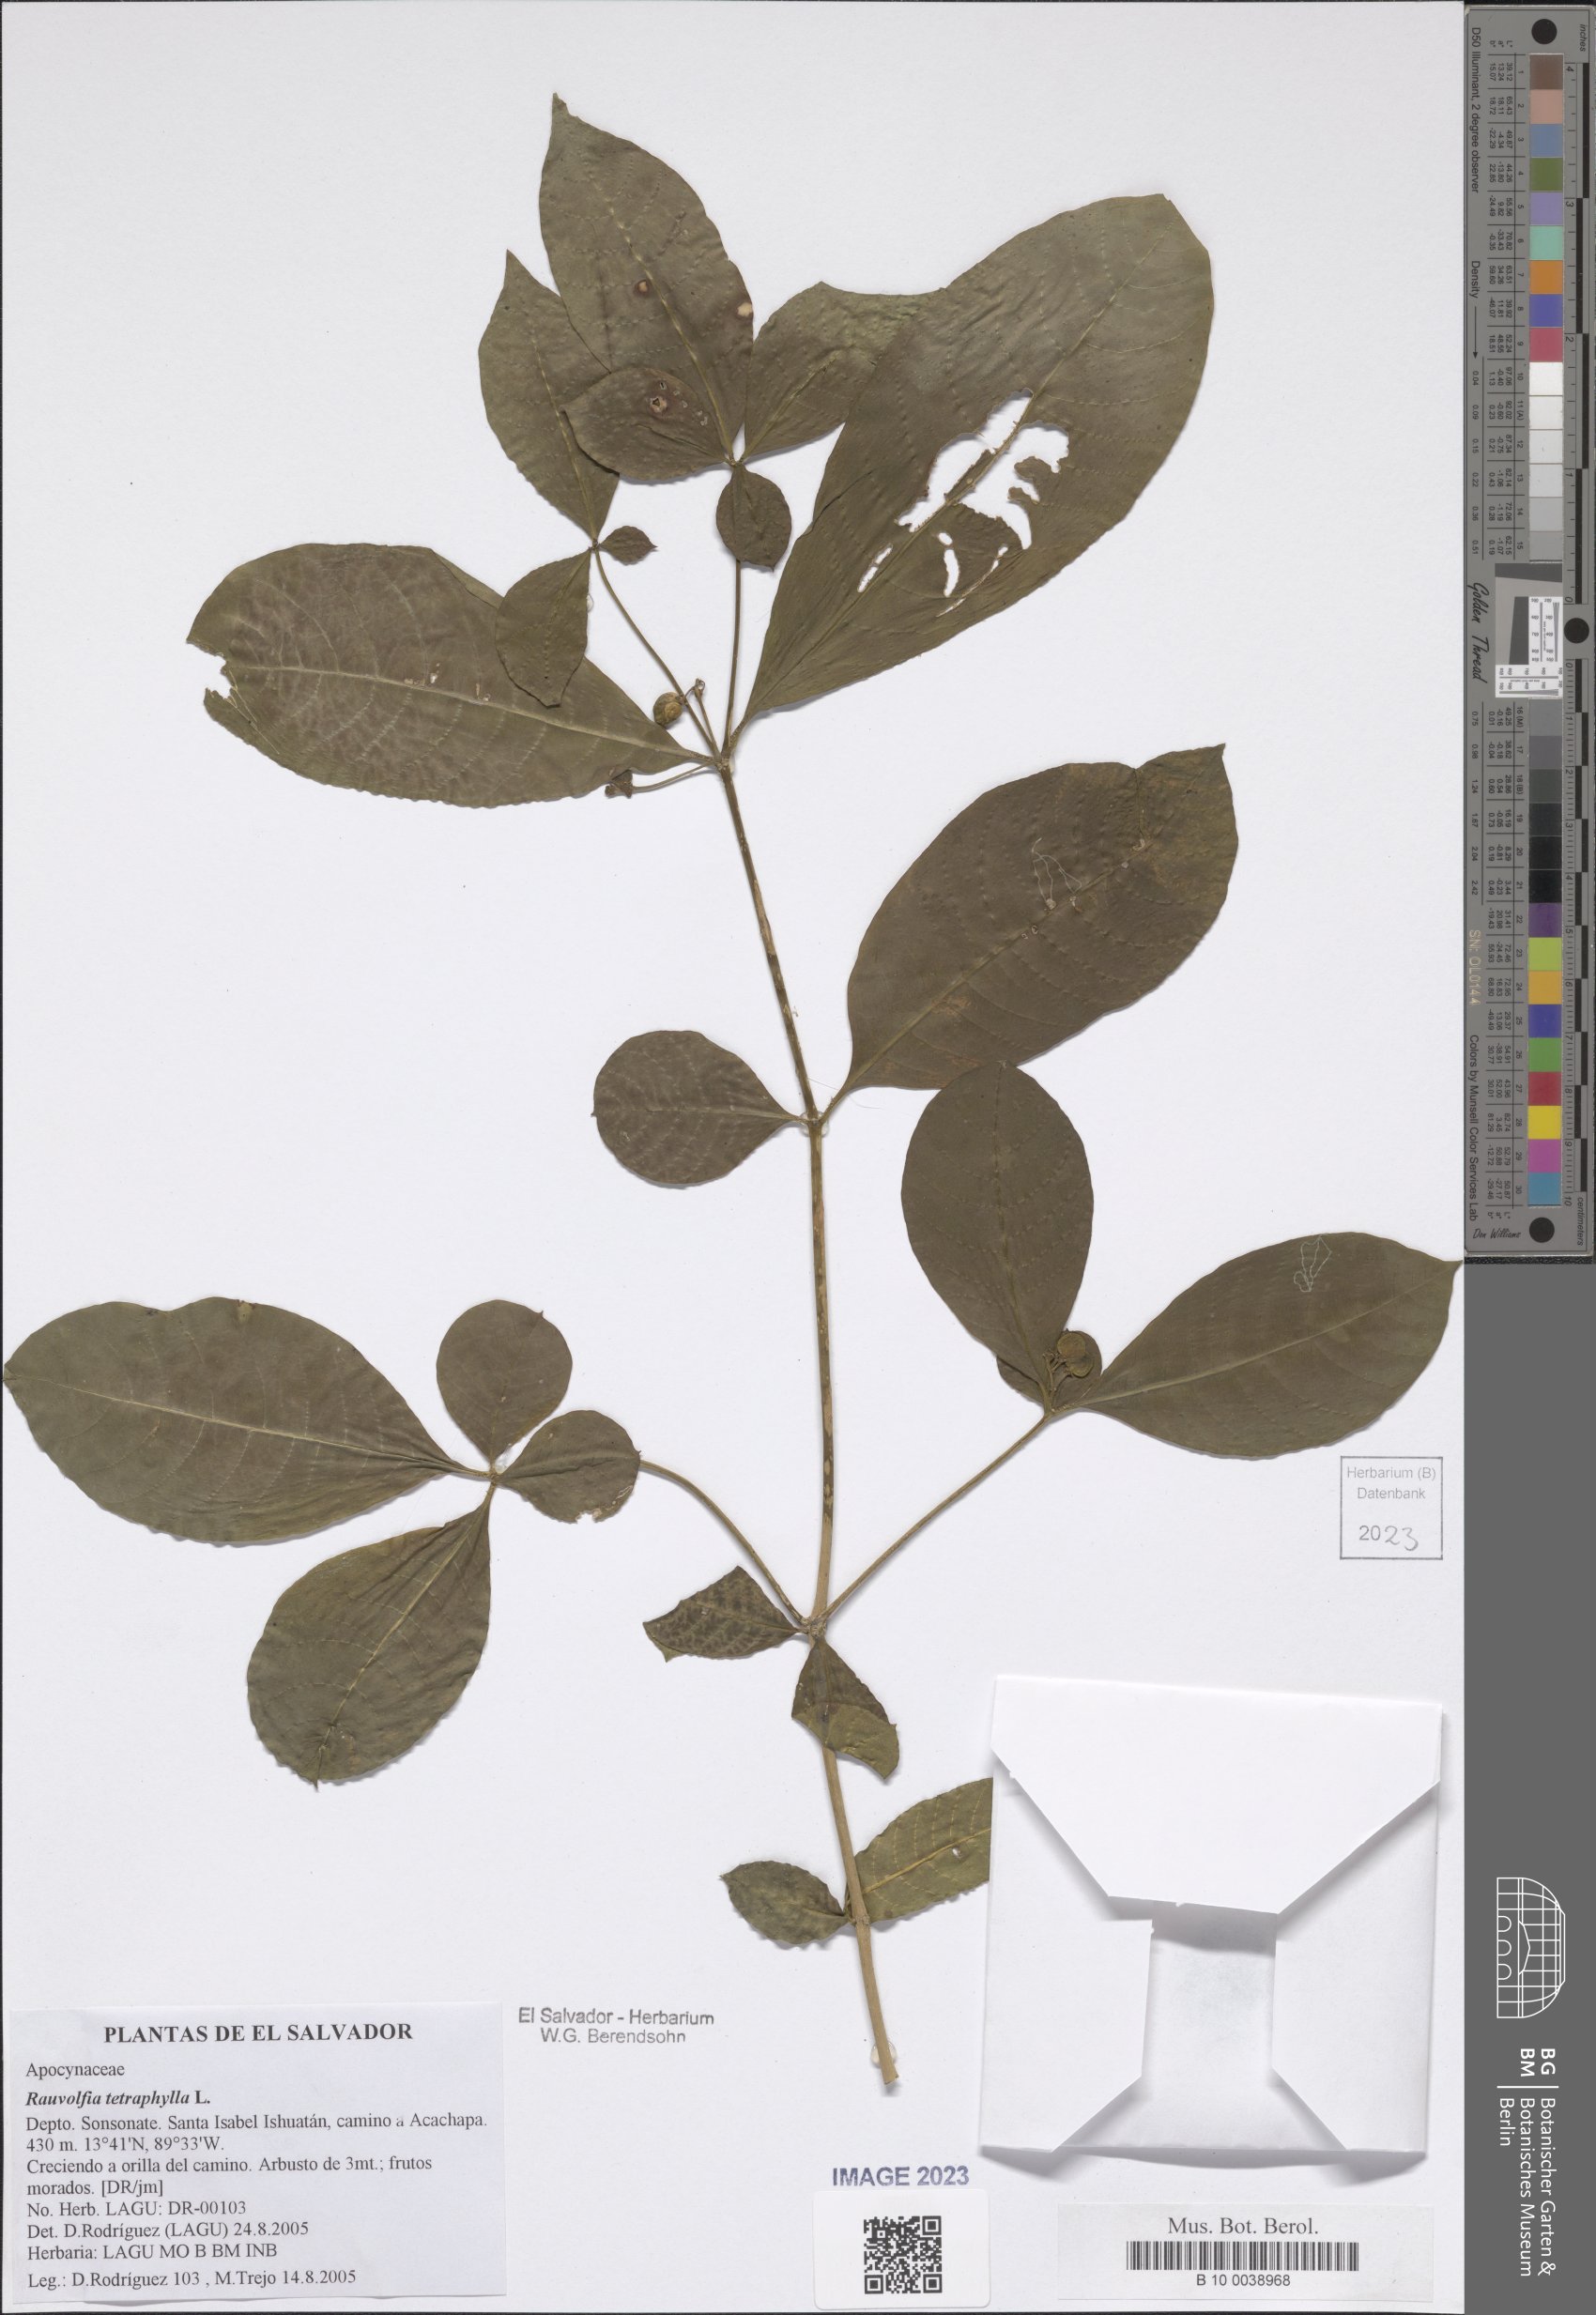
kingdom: Plantae
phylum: Tracheophyta
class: Magnoliopsida
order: Gentianales
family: Apocynaceae
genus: Rauvolfia
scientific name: Rauvolfia tetraphylla
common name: Four-leaf devil-pepper
